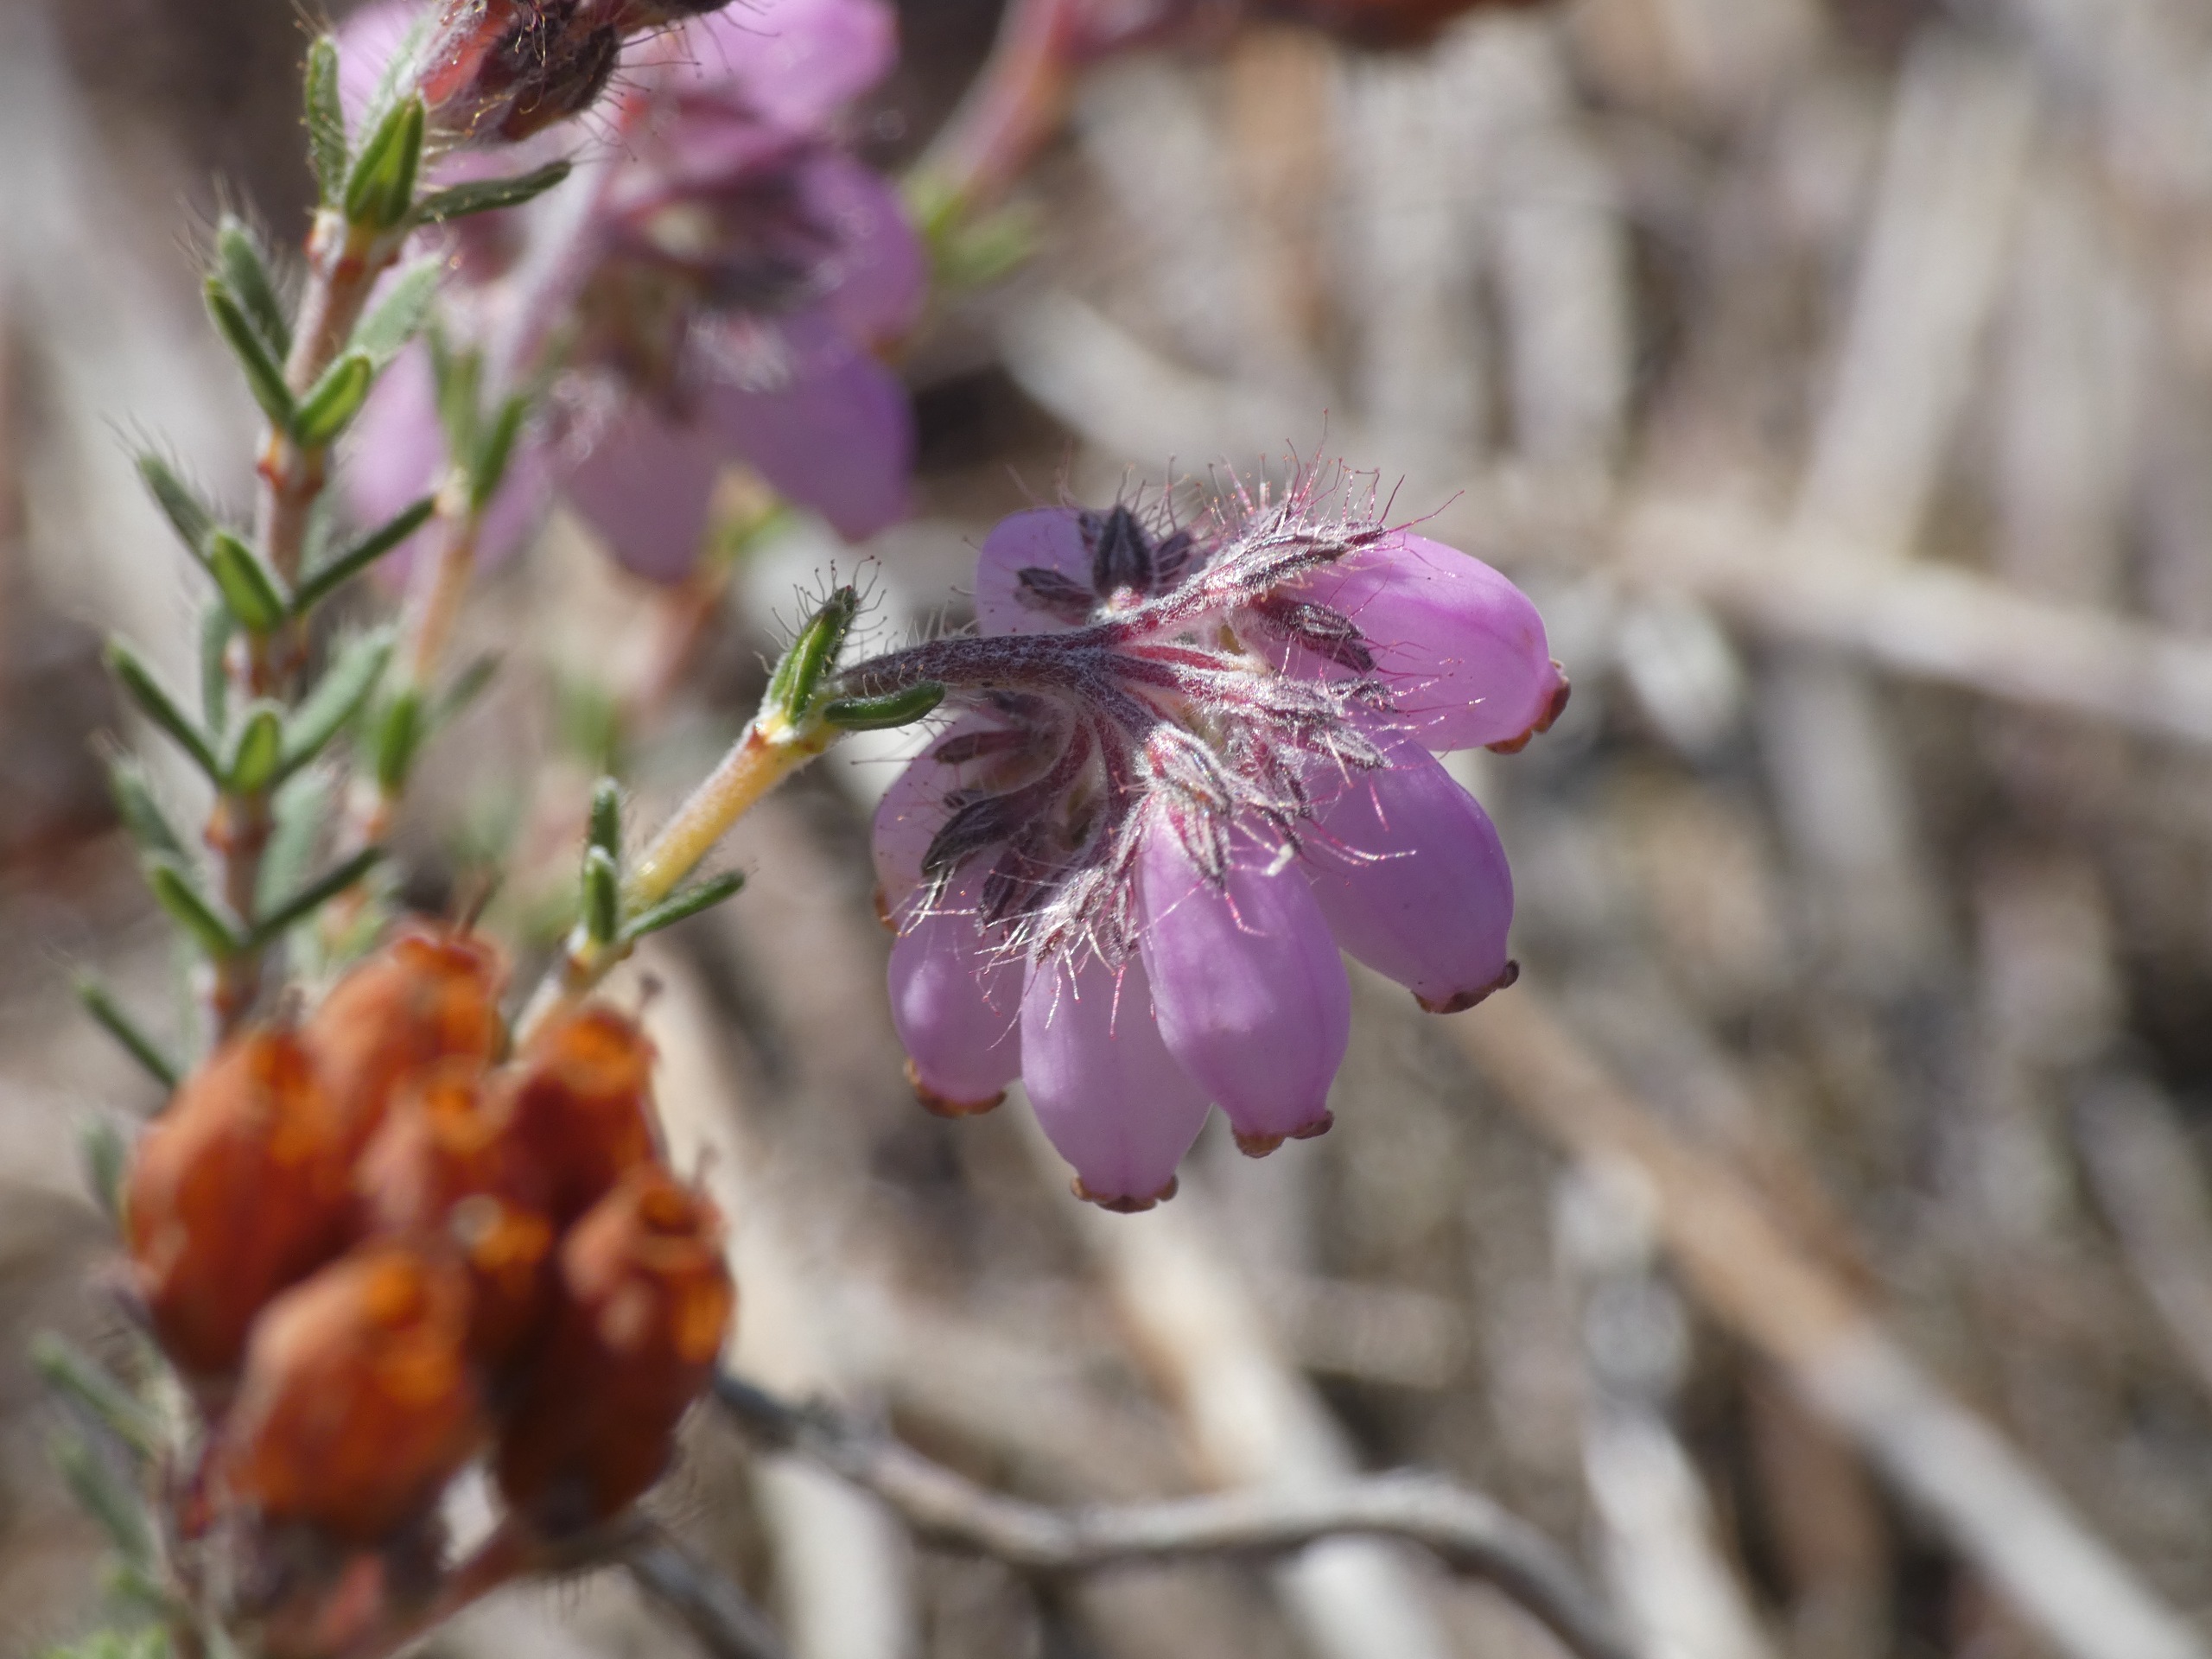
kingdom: Plantae
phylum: Tracheophyta
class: Magnoliopsida
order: Ericales
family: Ericaceae
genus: Erica
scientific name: Erica tetralix
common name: Klokkelyng
